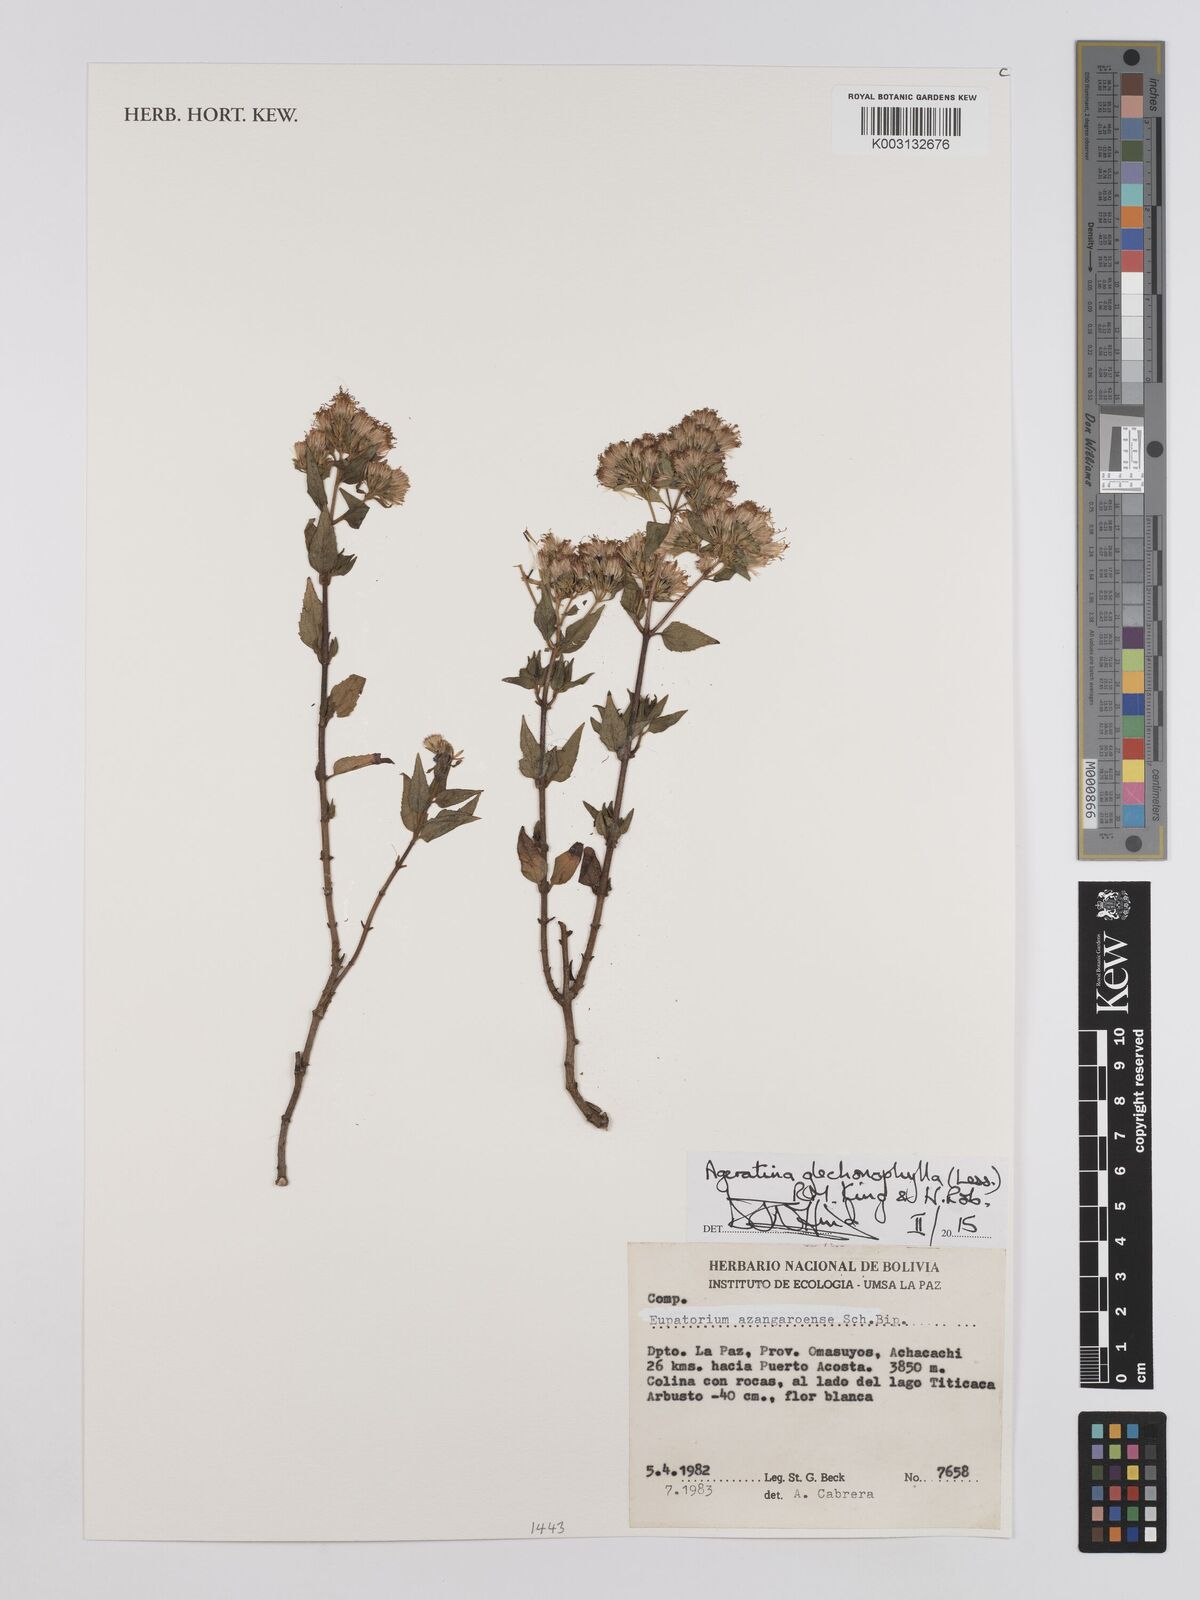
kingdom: Plantae
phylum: Tracheophyta
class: Magnoliopsida
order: Asterales
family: Asteraceae
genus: Ageratina
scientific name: Ageratina glechonophylla
